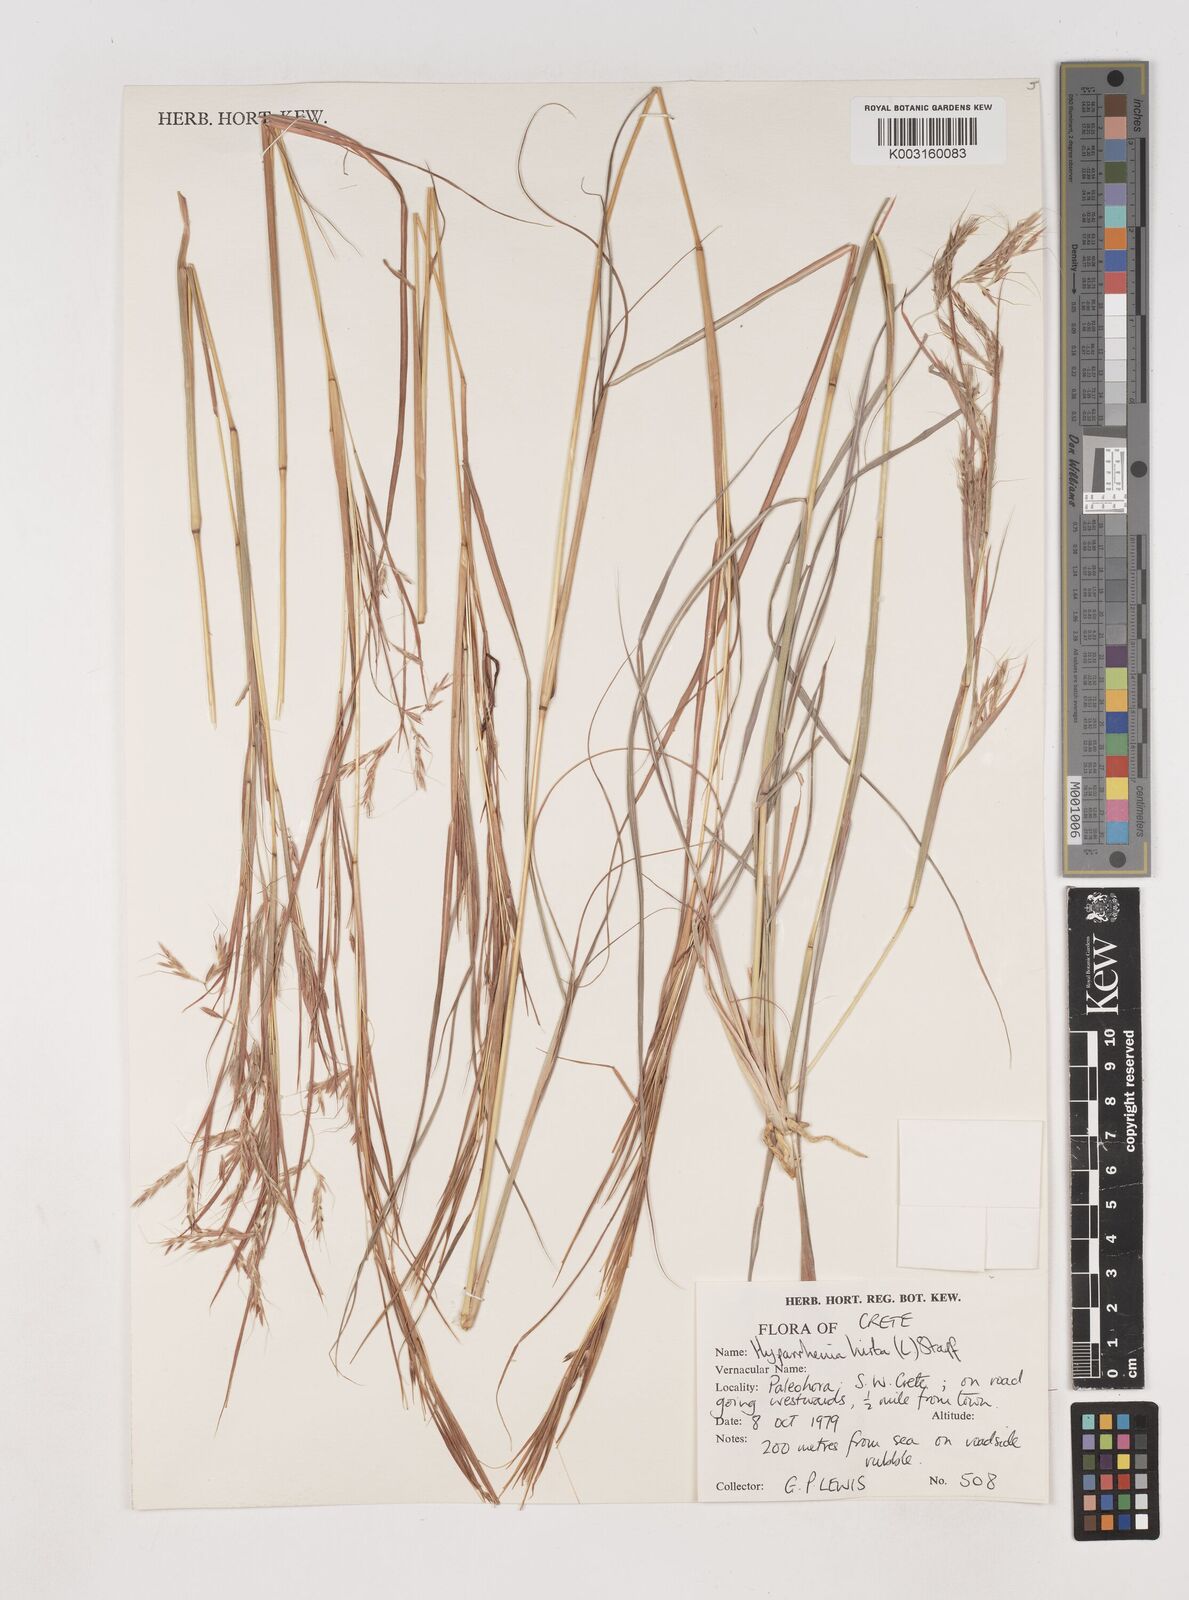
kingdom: Plantae
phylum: Tracheophyta
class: Liliopsida
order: Poales
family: Poaceae
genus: Hyparrhenia
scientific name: Hyparrhenia hirta
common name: Thatching grass
